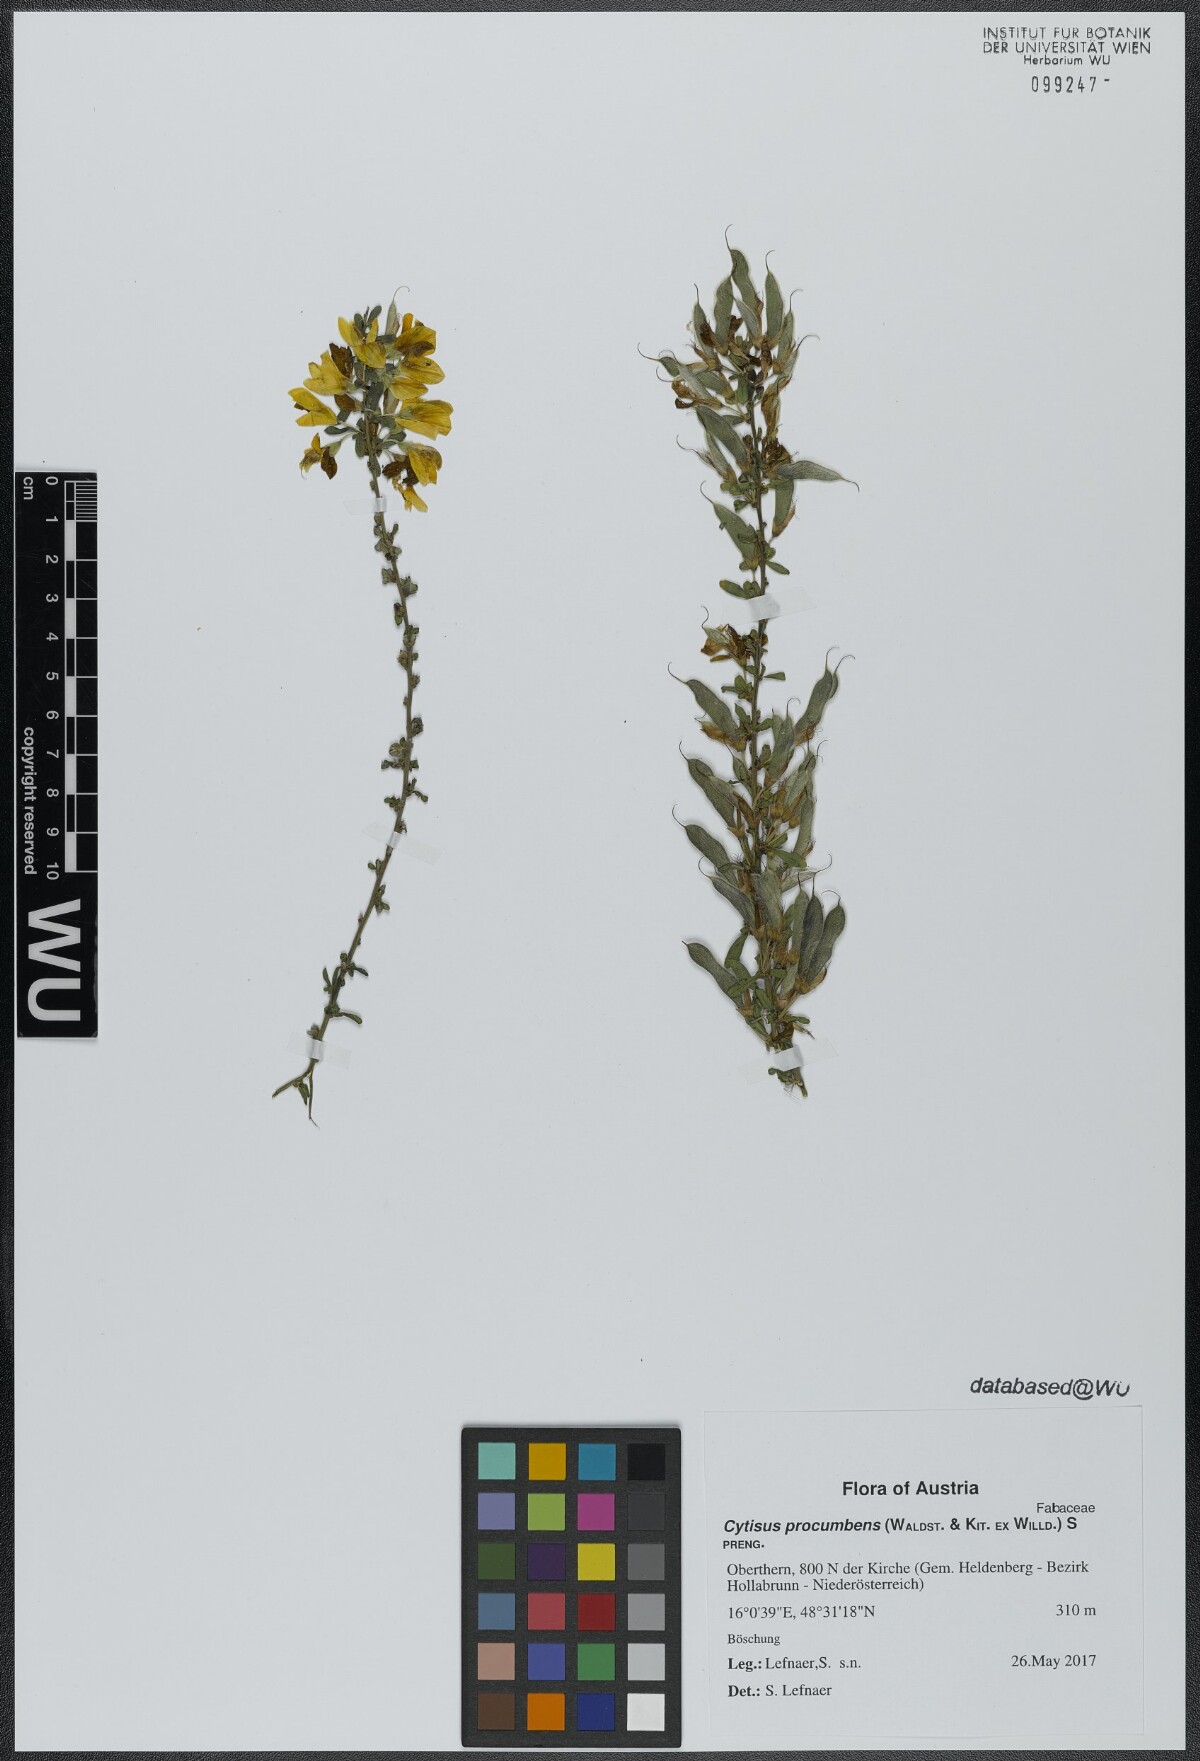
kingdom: Plantae
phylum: Tracheophyta
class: Magnoliopsida
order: Fabales
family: Fabaceae
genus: Cytisus
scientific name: Cytisus procumbens
